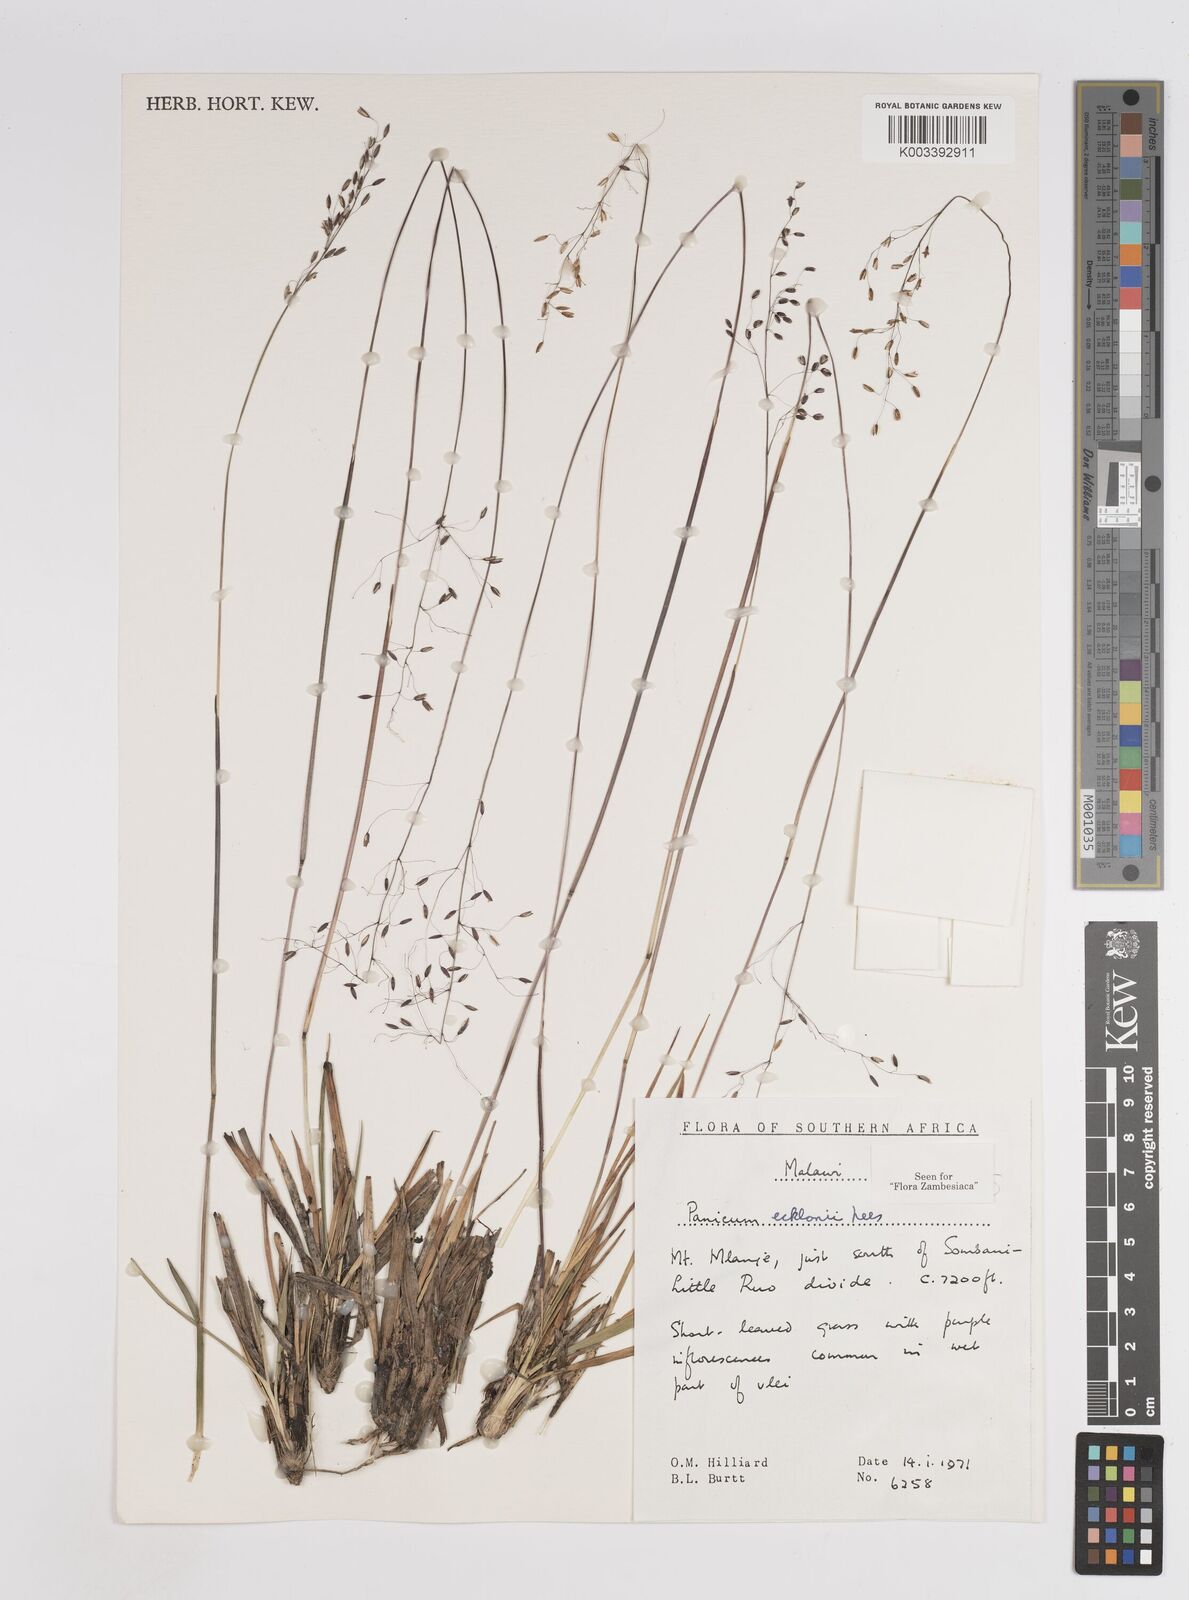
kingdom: Plantae
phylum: Tracheophyta
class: Liliopsida
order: Poales
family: Poaceae
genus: Adenochloa
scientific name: Adenochloa ecklonii
